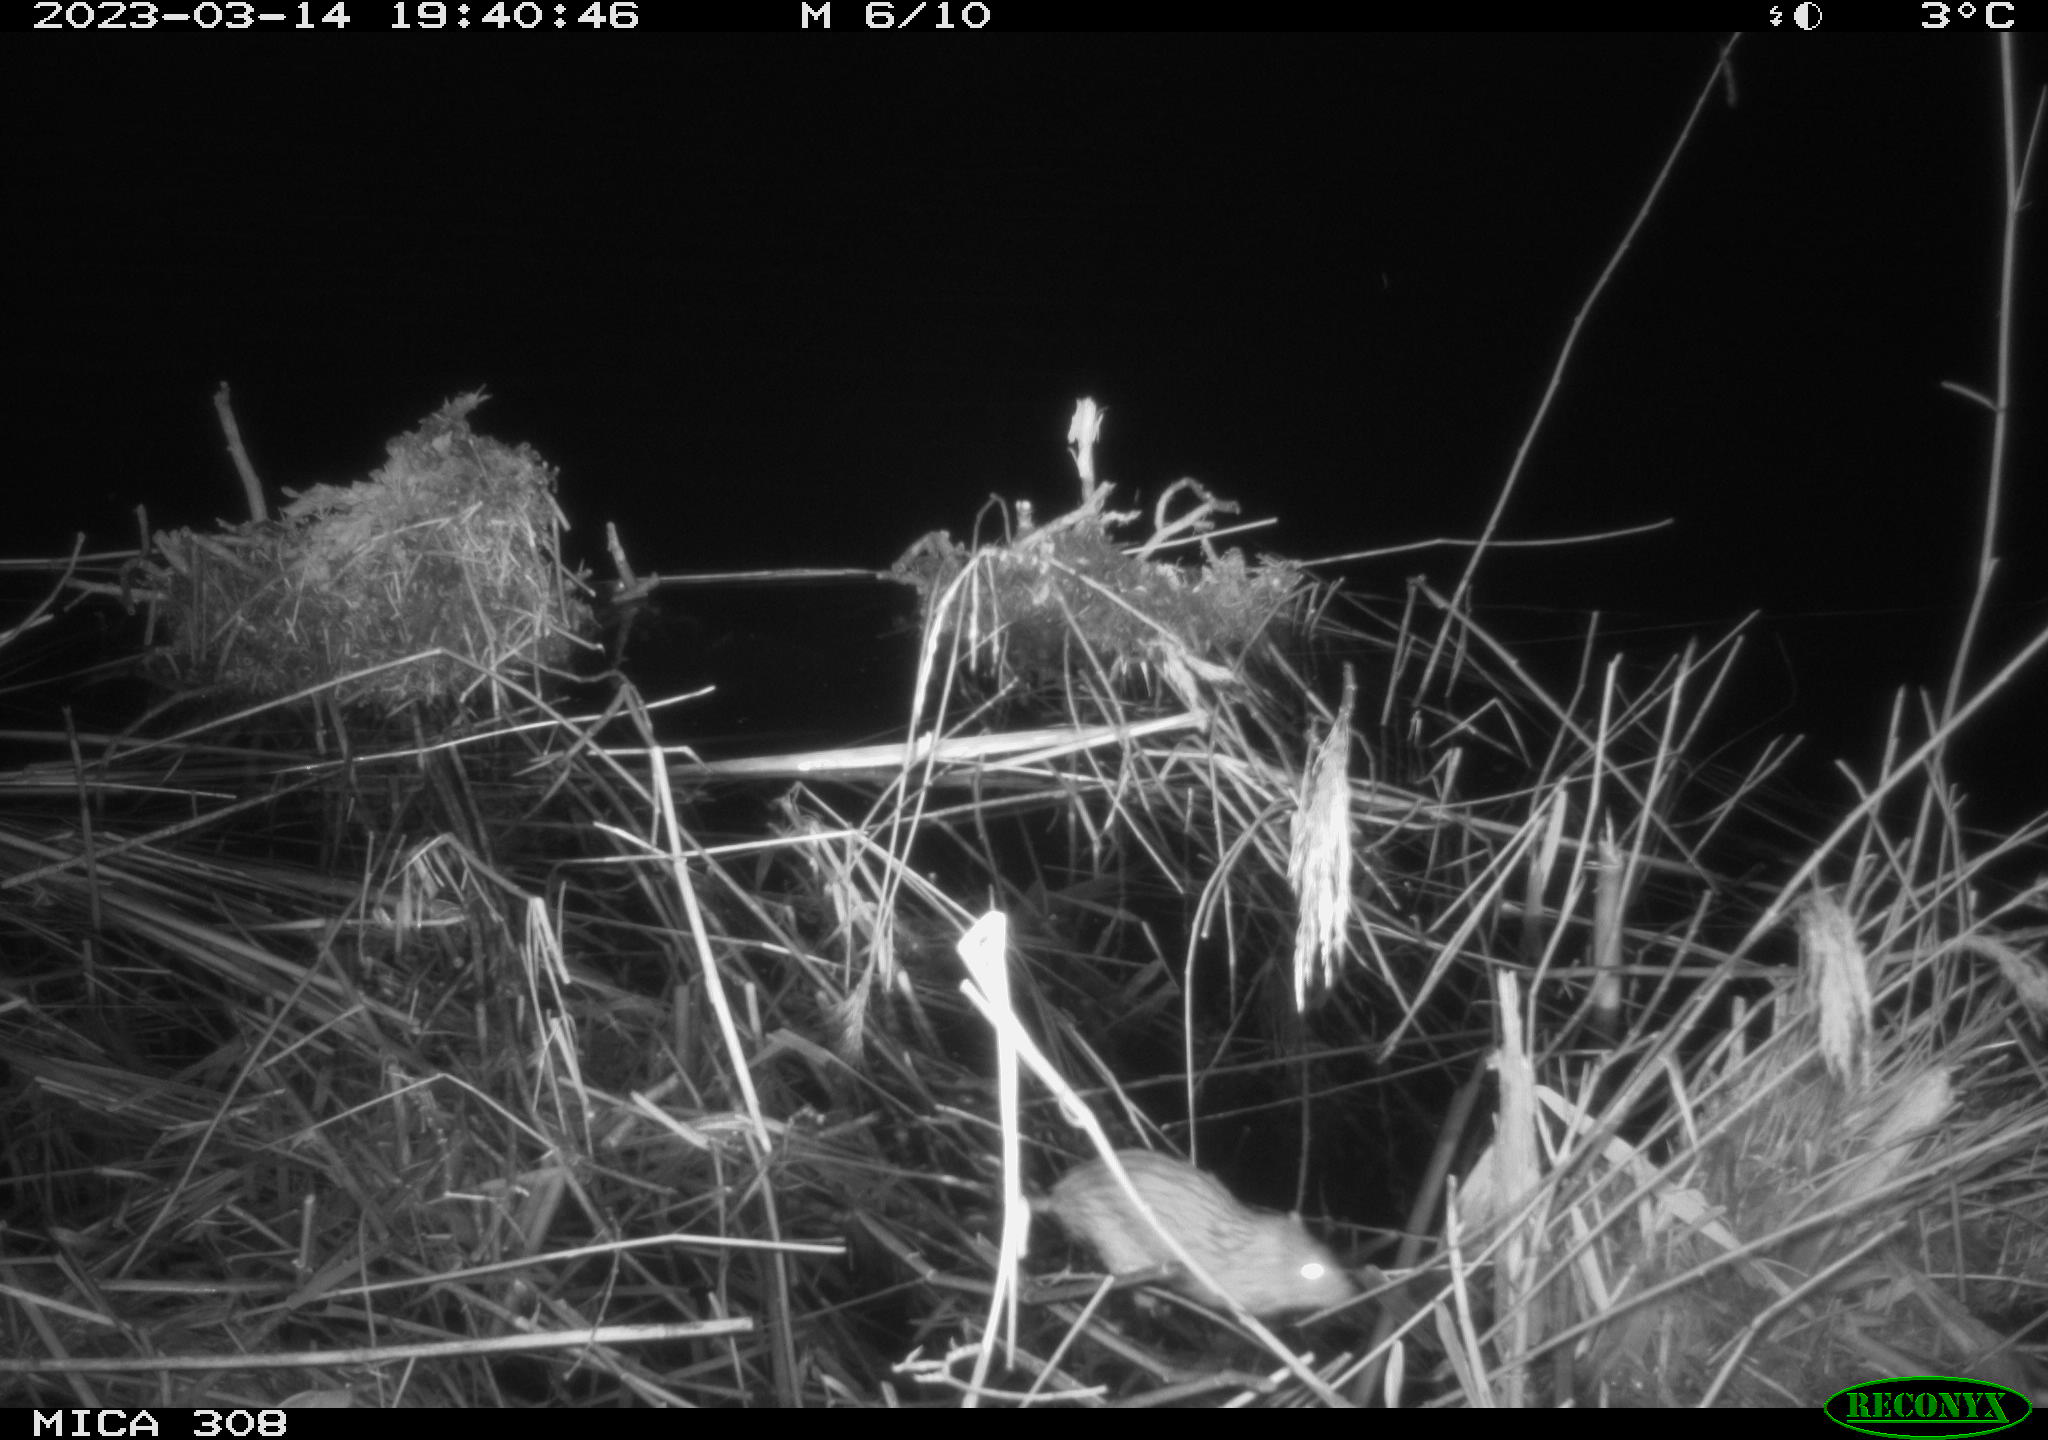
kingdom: Animalia
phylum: Chordata
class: Mammalia
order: Rodentia
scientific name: Rodentia
